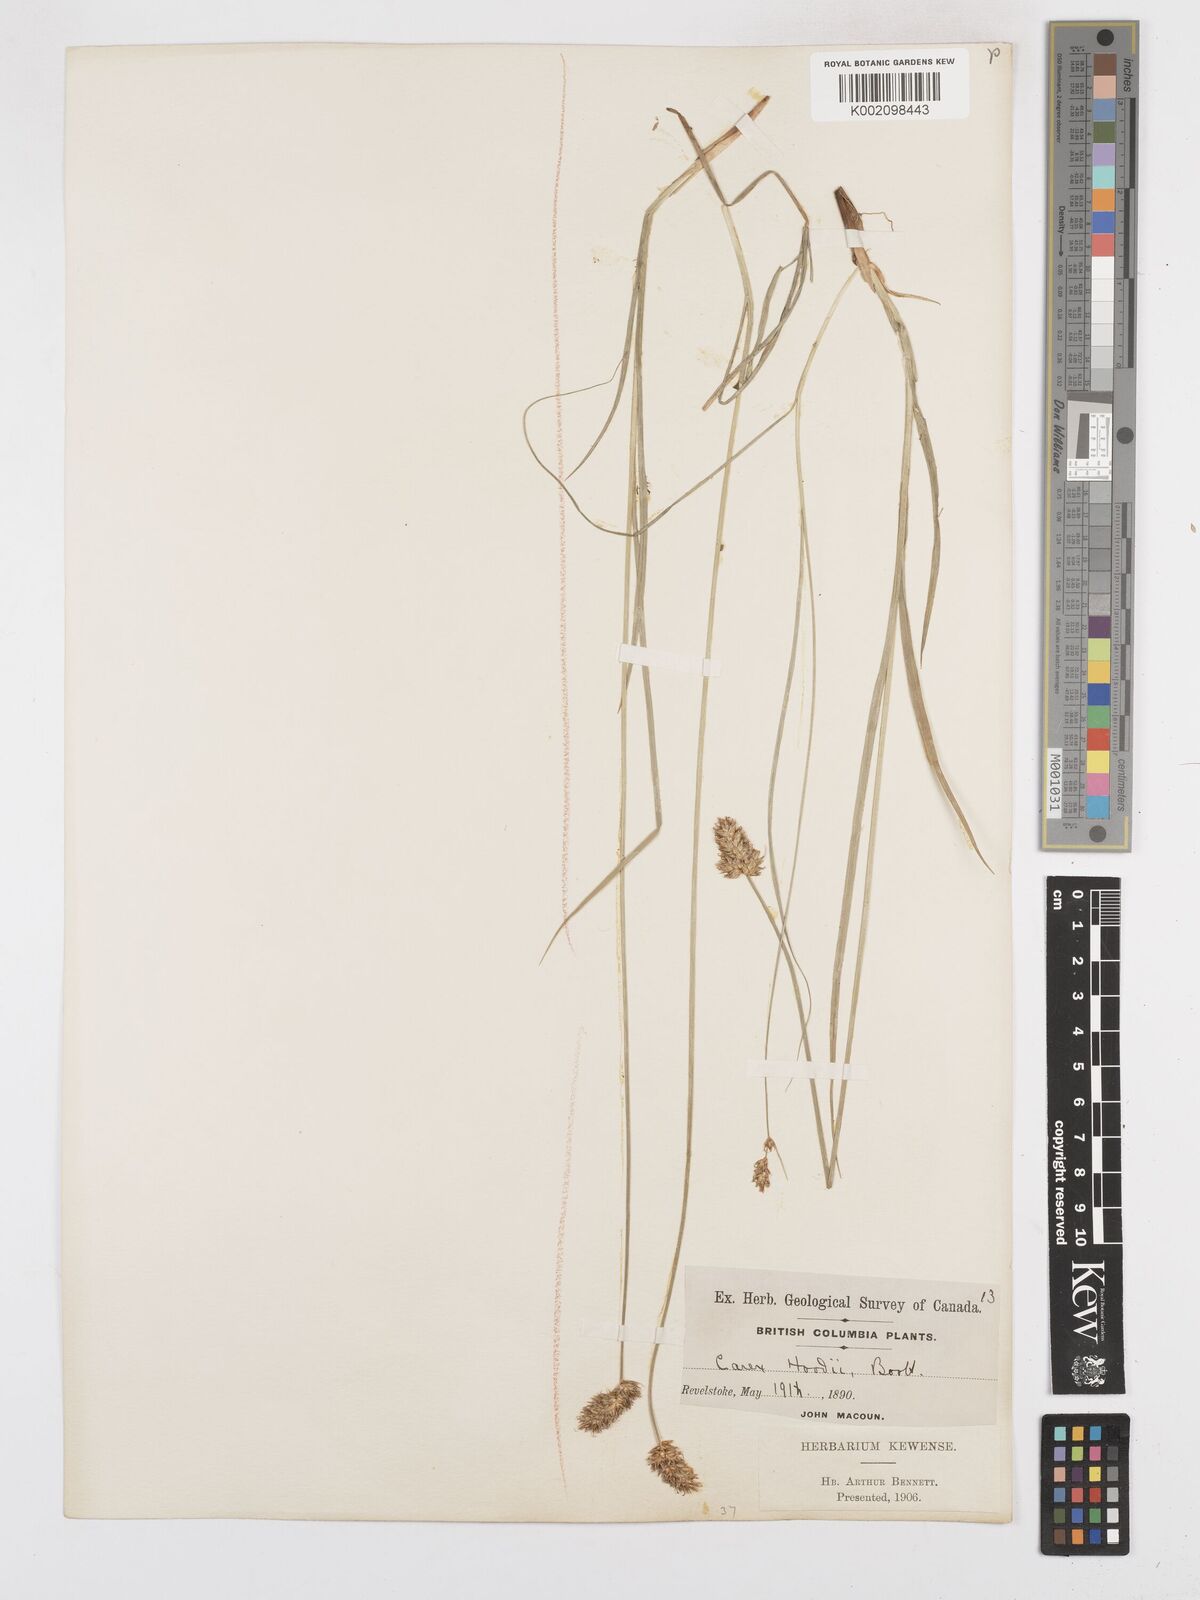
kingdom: Plantae
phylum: Tracheophyta
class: Liliopsida
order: Poales
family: Cyperaceae
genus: Carex
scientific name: Carex hoodii
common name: Hood's sedge
